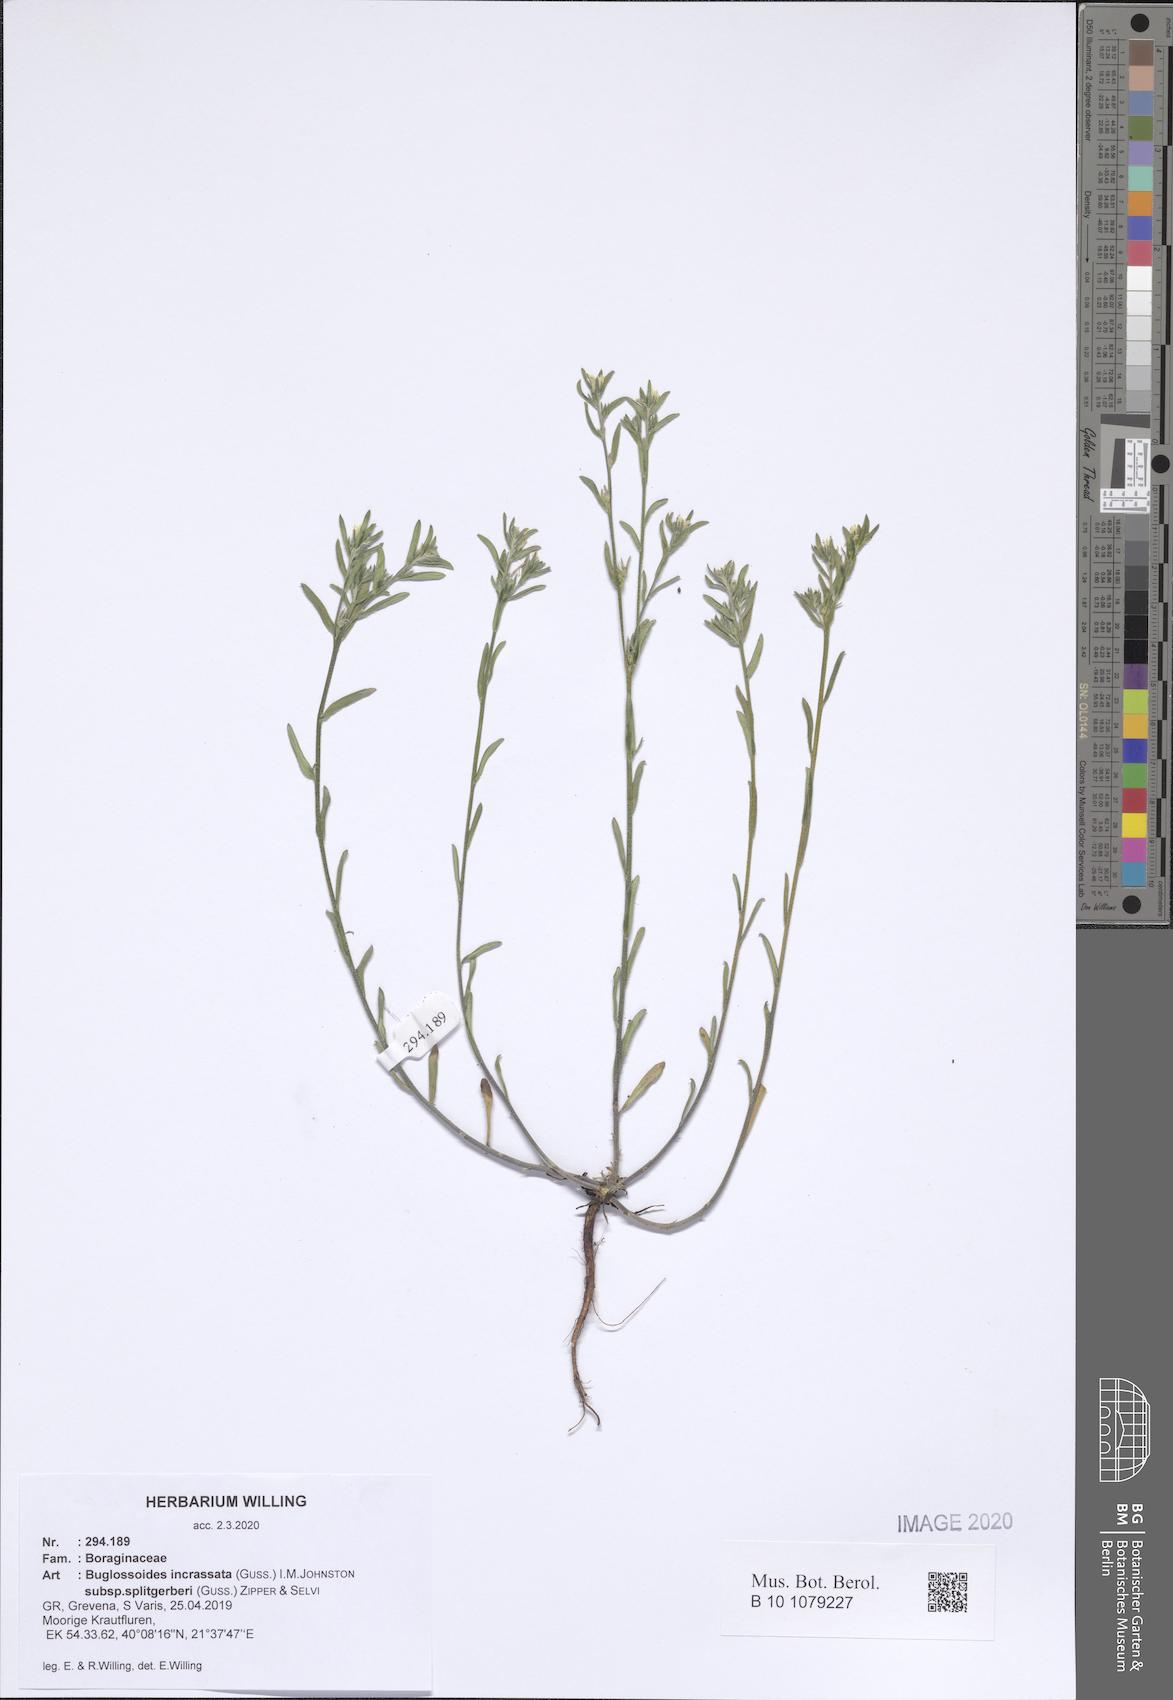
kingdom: Plantae
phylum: Tracheophyta
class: Magnoliopsida
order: Boraginales
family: Boraginaceae
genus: Buglossoides
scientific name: Buglossoides incrassata
